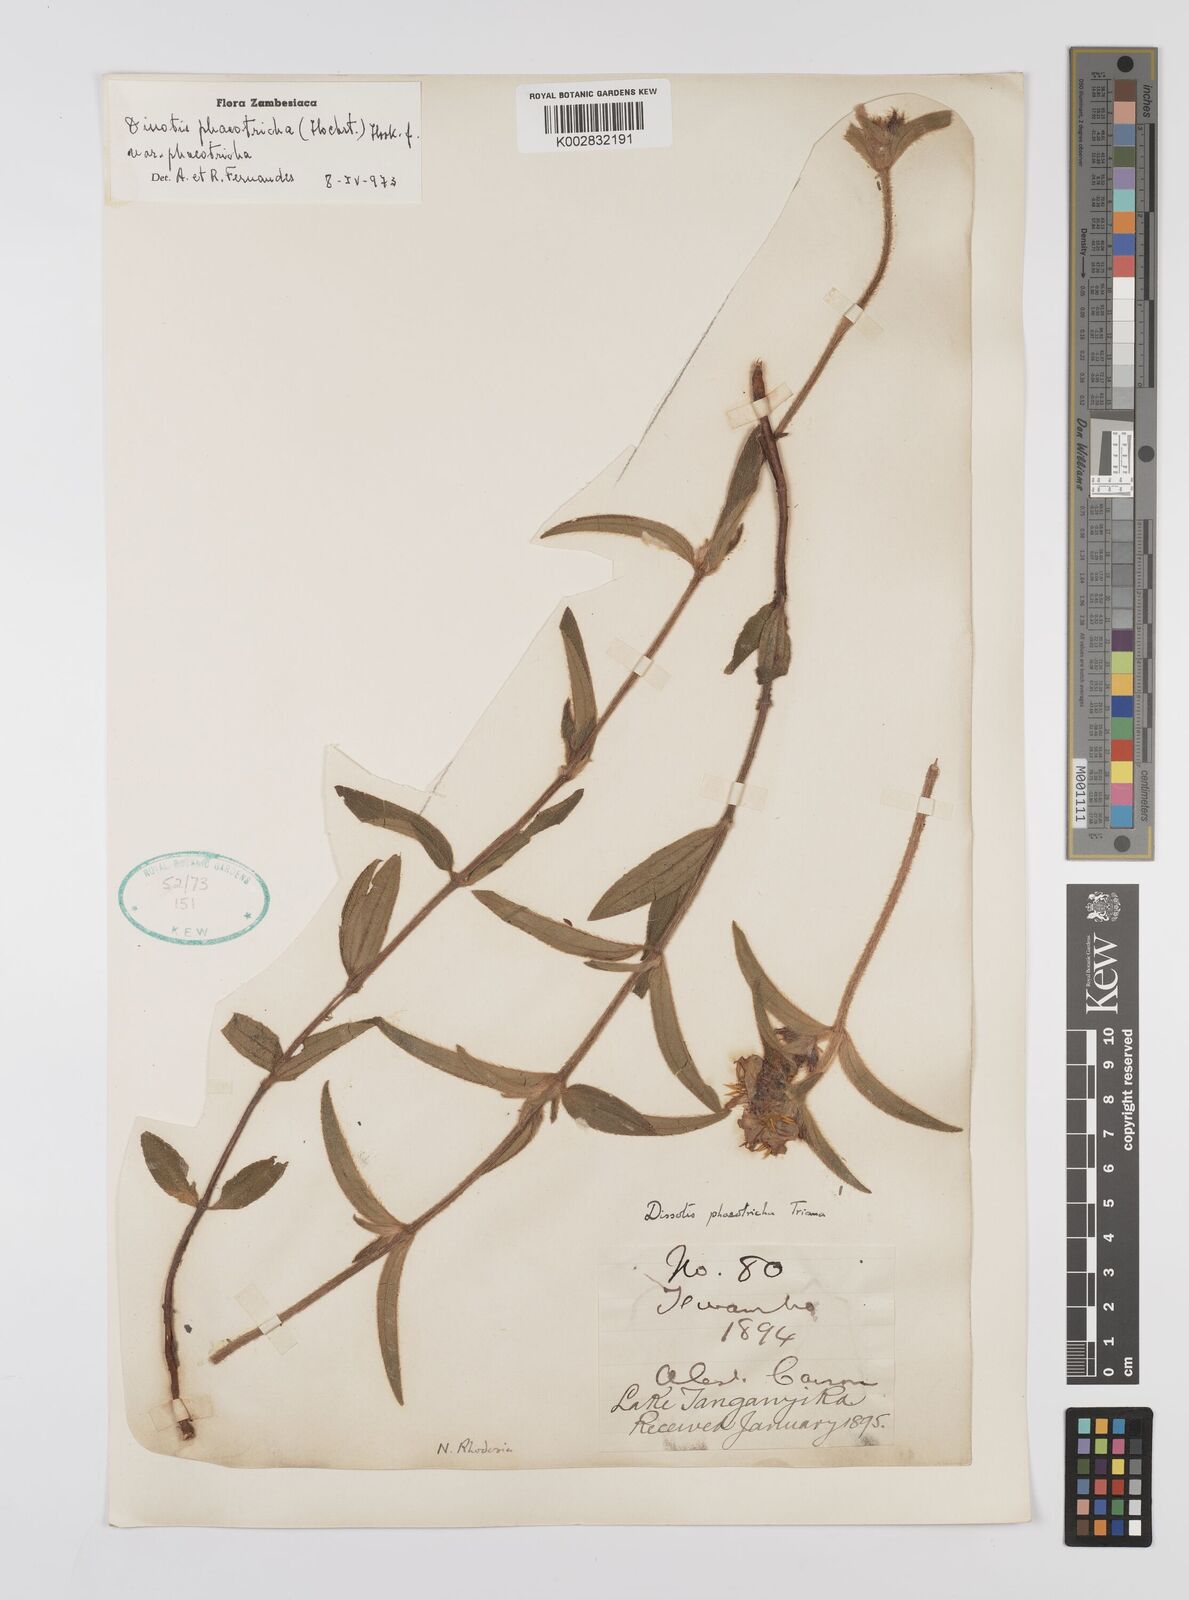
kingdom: Plantae
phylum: Tracheophyta
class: Magnoliopsida
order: Myrtales
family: Melastomataceae
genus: Antherotoma
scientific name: Antherotoma phaeotricha
